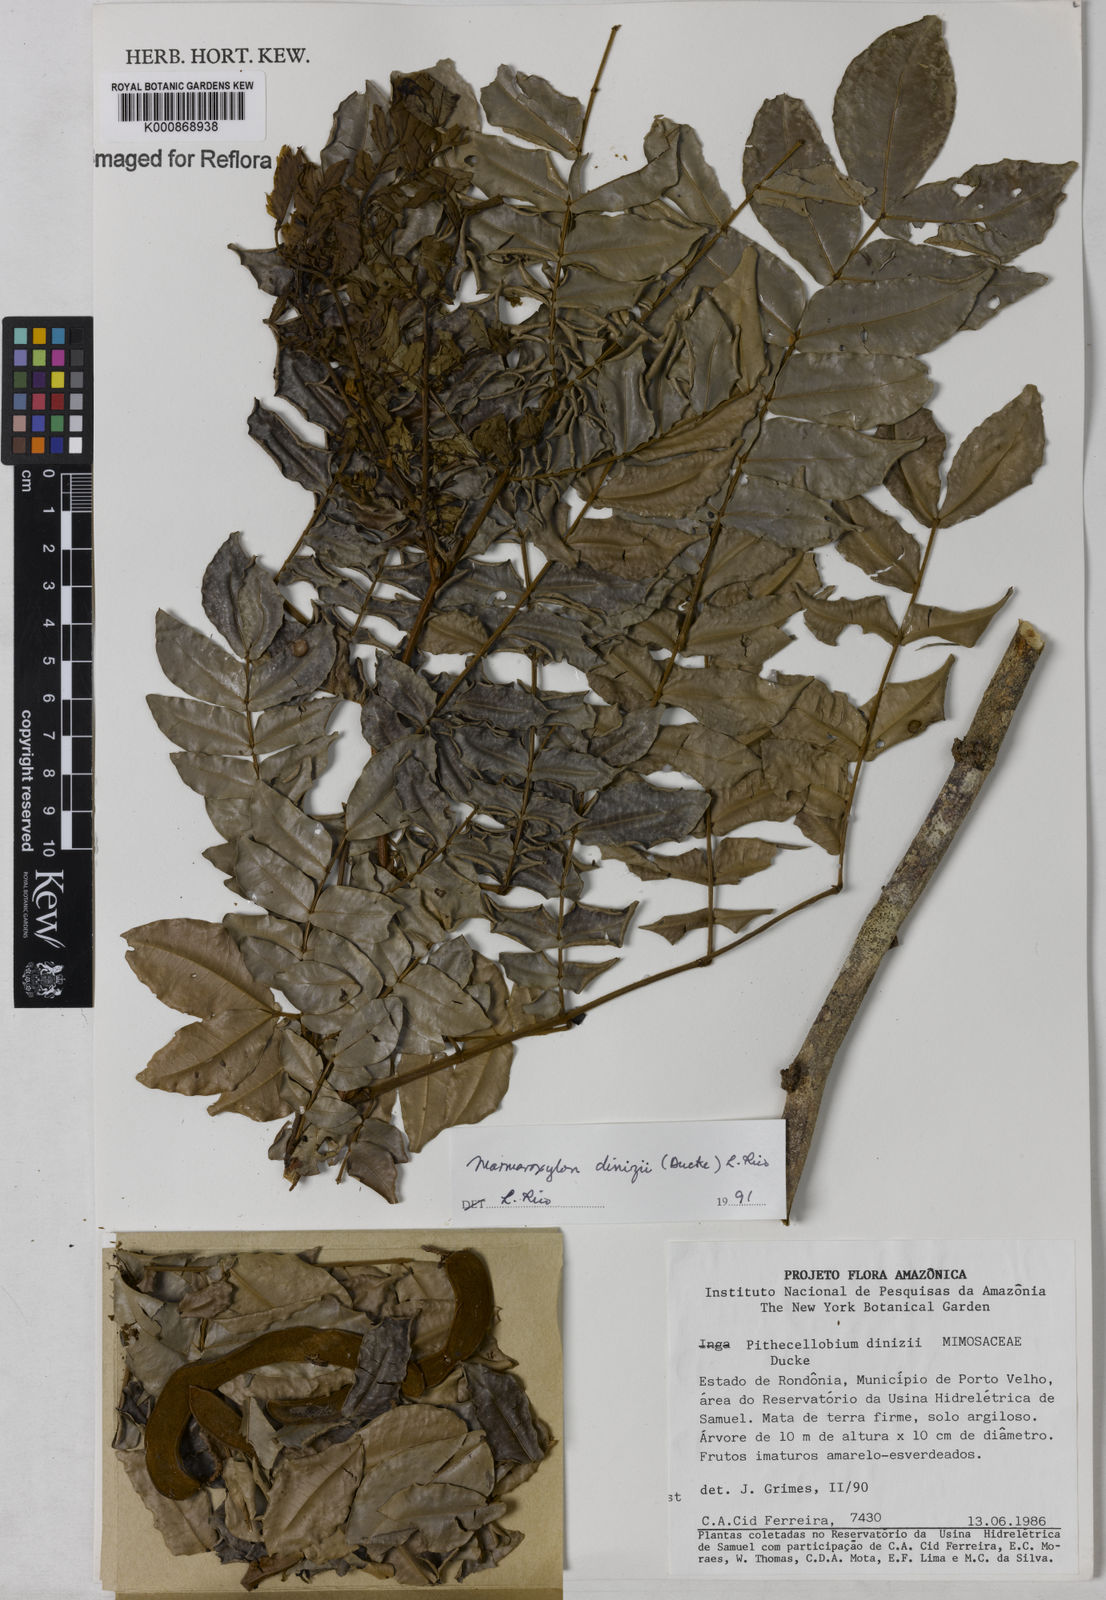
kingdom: Plantae
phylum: Tracheophyta
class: Magnoliopsida
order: Fabales
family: Fabaceae
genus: Zygia
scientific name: Zygia dinizii
